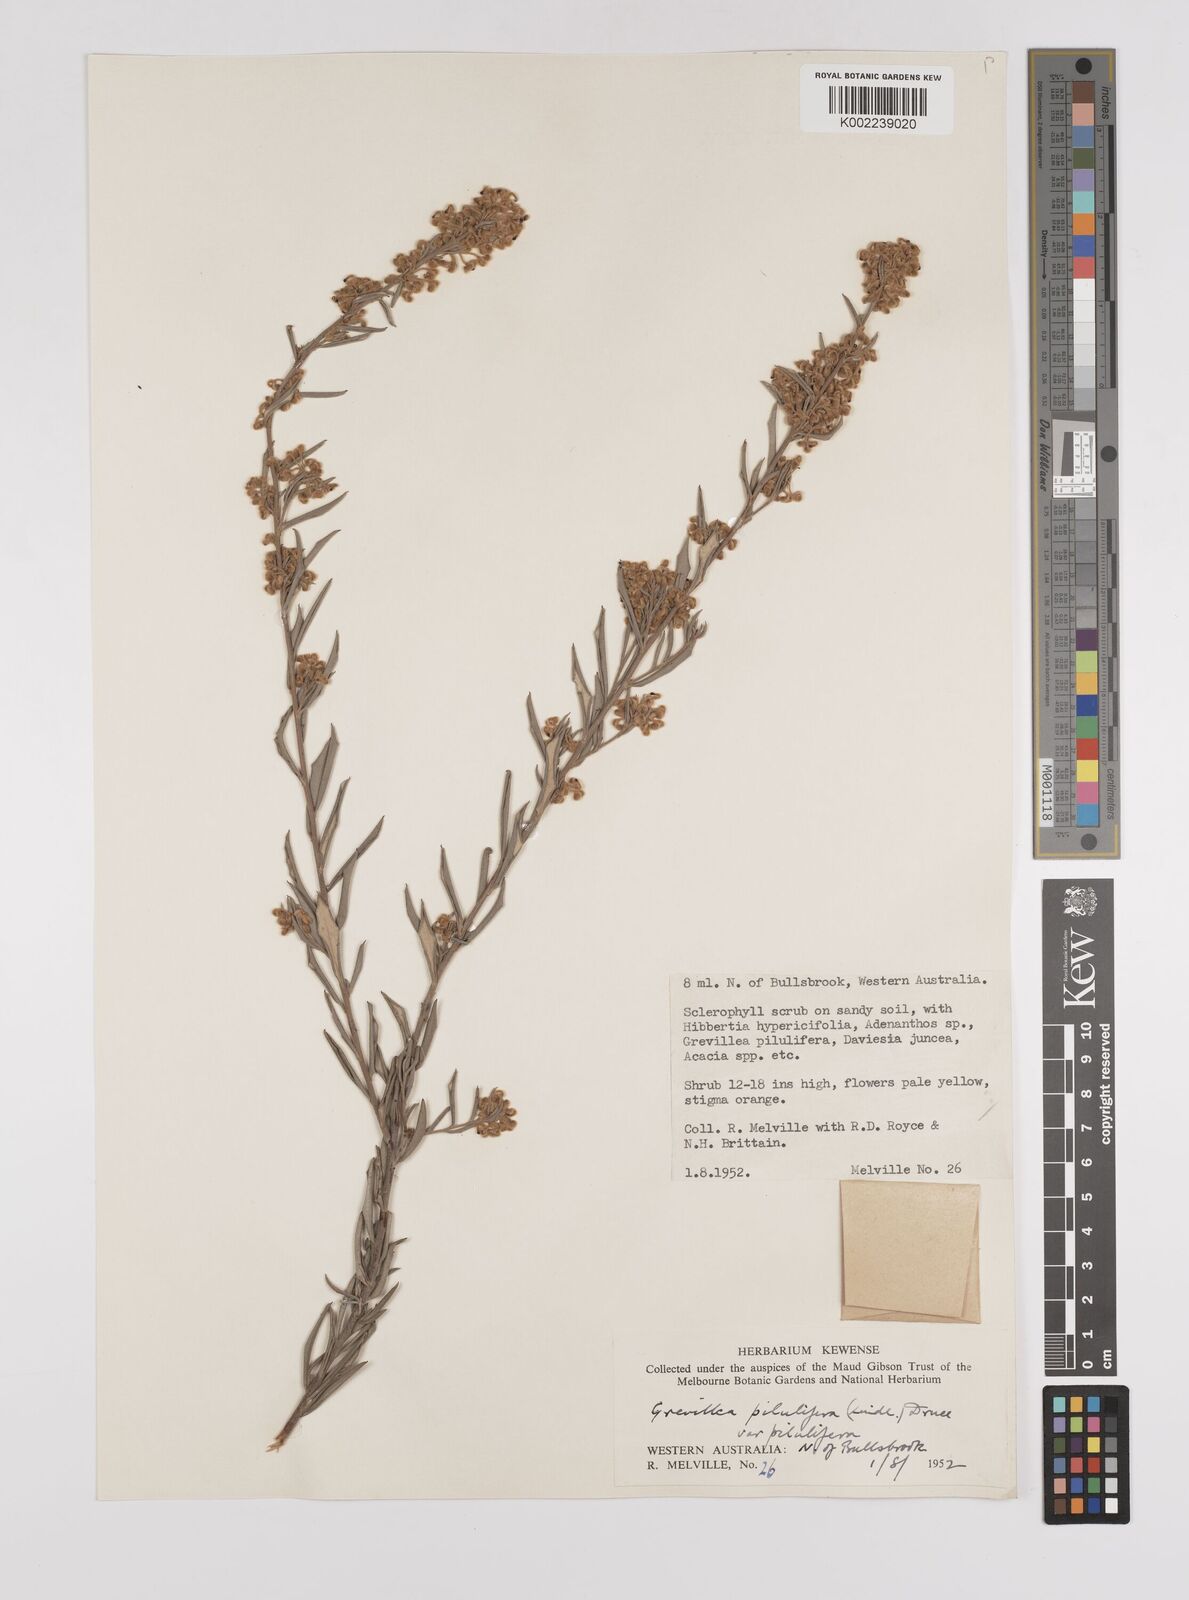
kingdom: Plantae
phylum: Tracheophyta
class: Magnoliopsida
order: Proteales
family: Proteaceae
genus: Grevillea
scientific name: Grevillea pilulifera
